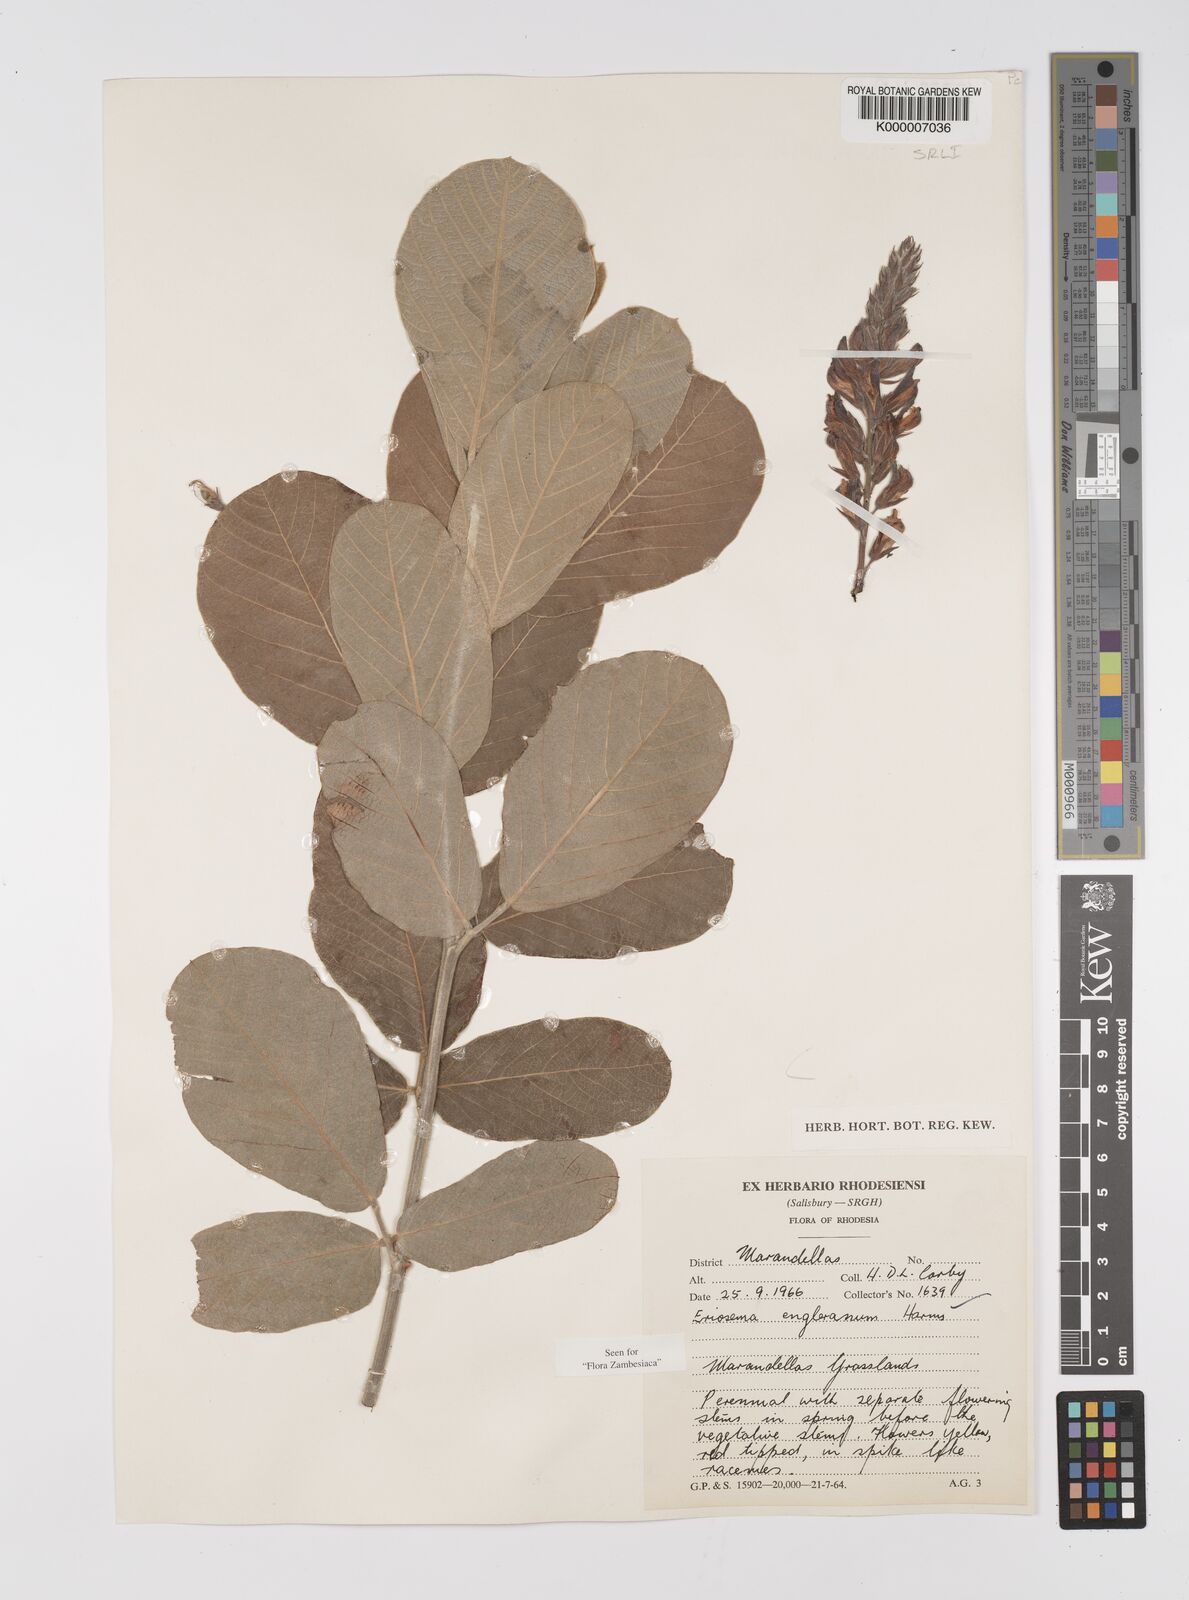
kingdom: Plantae
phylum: Tracheophyta
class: Magnoliopsida
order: Fabales
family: Fabaceae
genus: Eriosema
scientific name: Eriosema englerianum
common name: Blue bush
